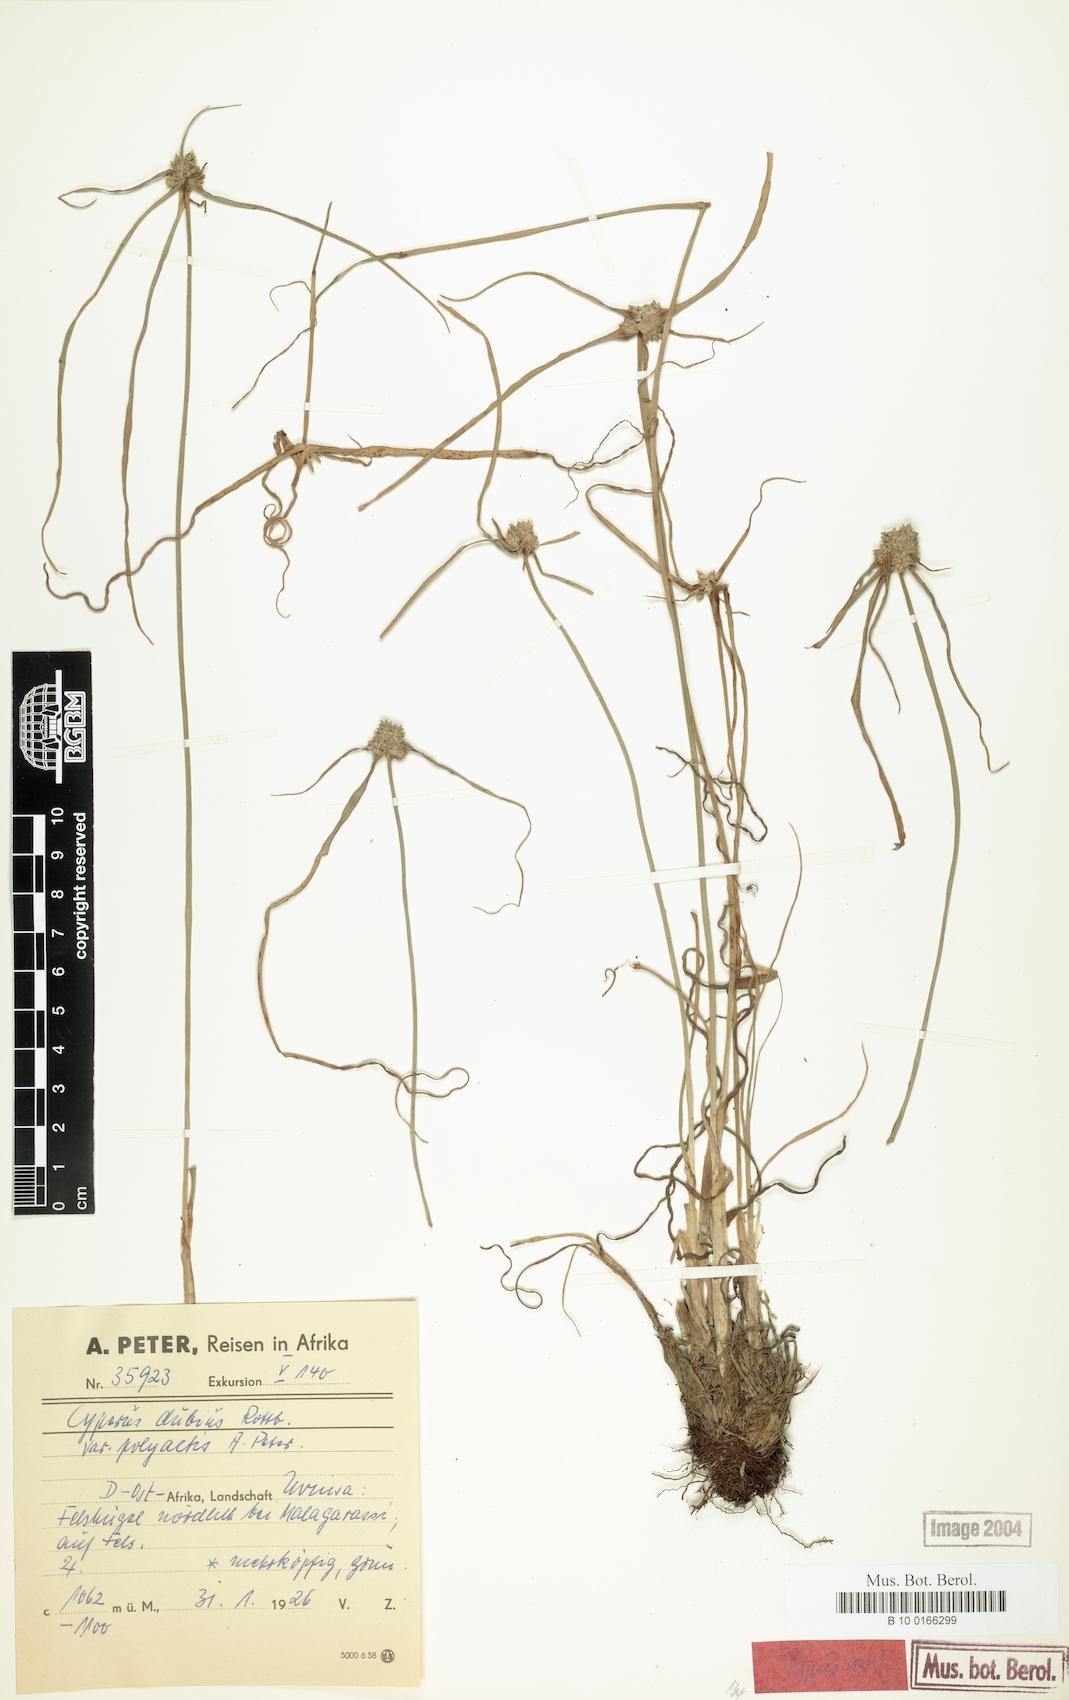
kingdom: Plantae
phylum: Tracheophyta
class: Liliopsida
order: Poales
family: Cyperaceae
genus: Cyperus
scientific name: Cyperus dubius
